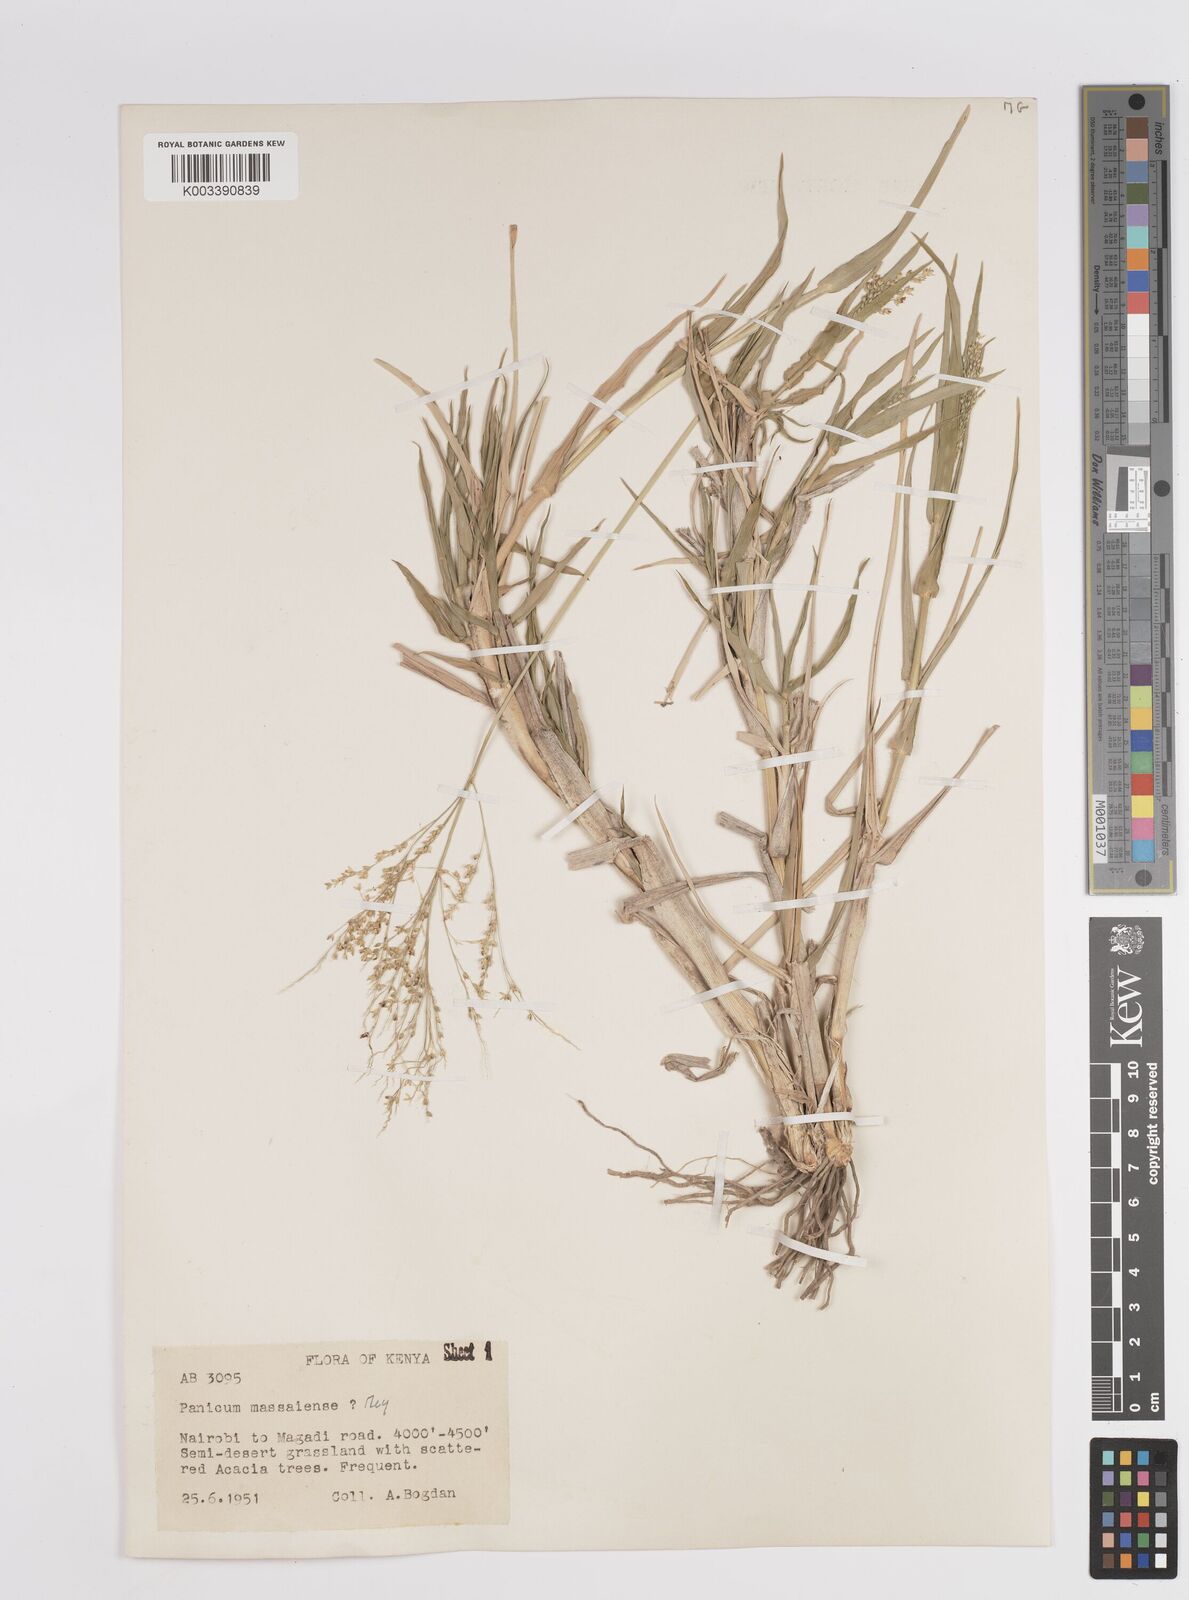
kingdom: Plantae
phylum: Tracheophyta
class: Liliopsida
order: Poales
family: Poaceae
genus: Panicum
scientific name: Panicum coloratum
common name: Kleingrass
